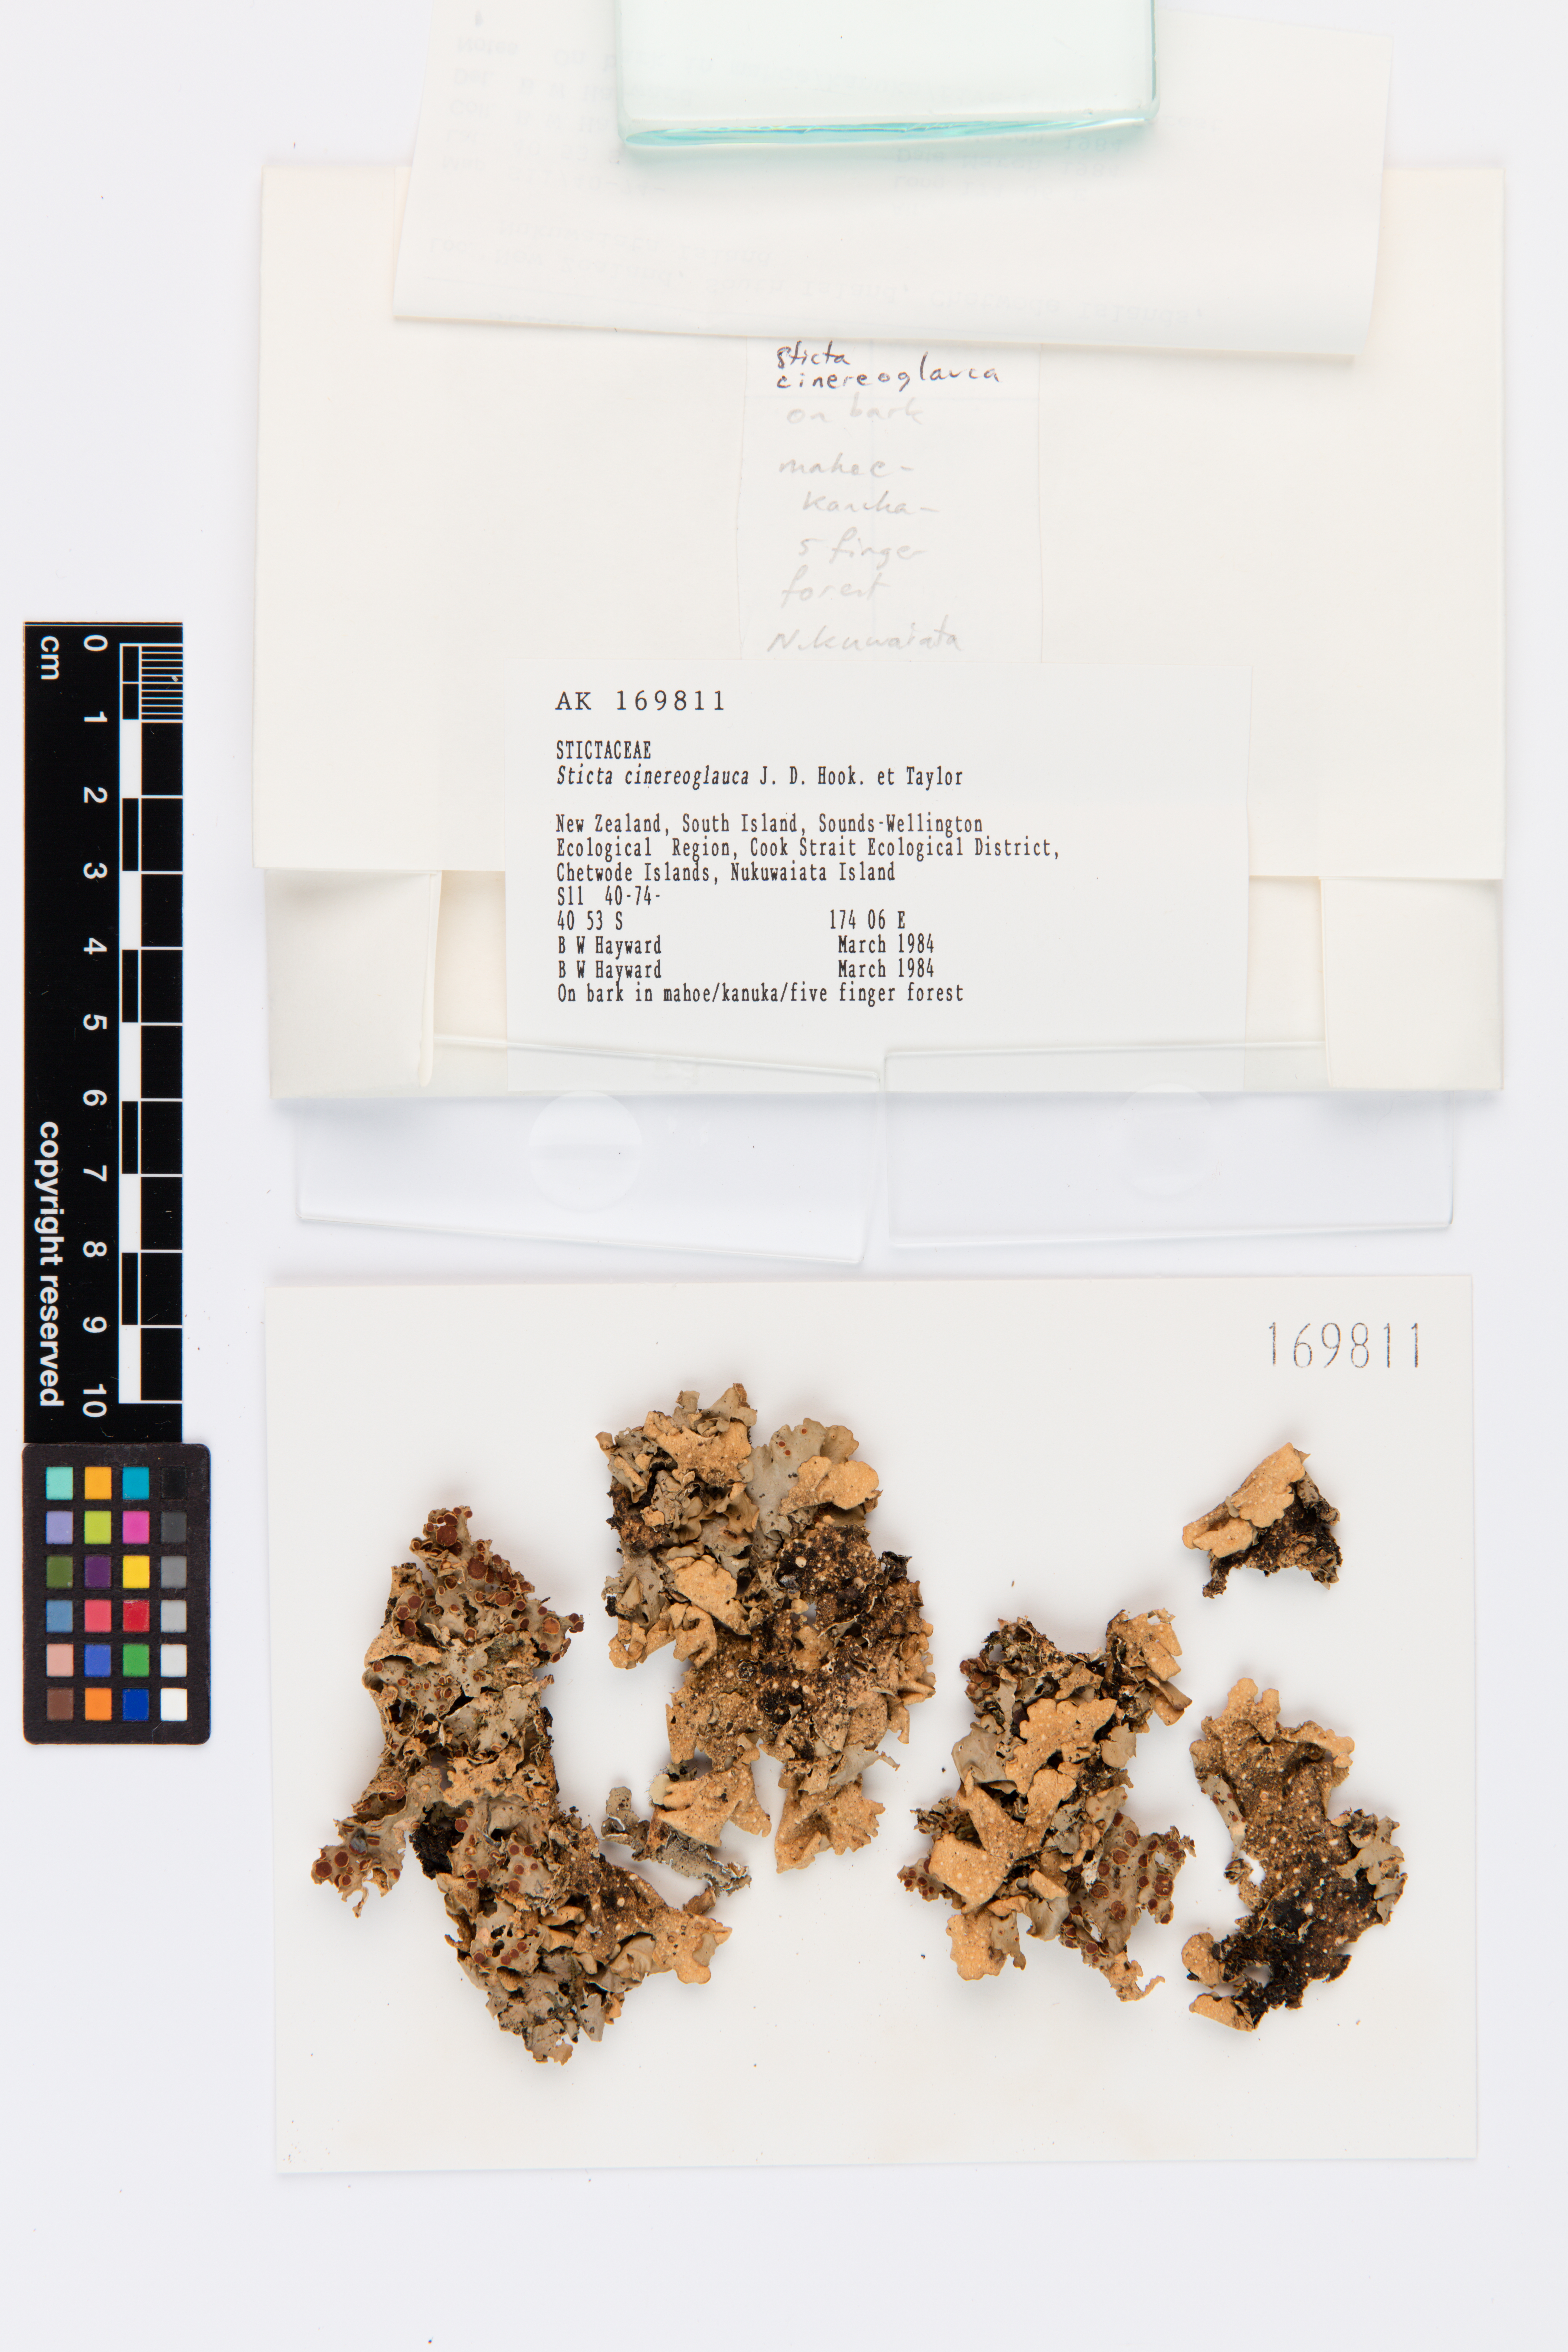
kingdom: Fungi
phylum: Ascomycota
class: Lecanoromycetes
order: Peltigerales
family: Lobariaceae
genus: Sticta
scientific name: Sticta cinereoglauca
